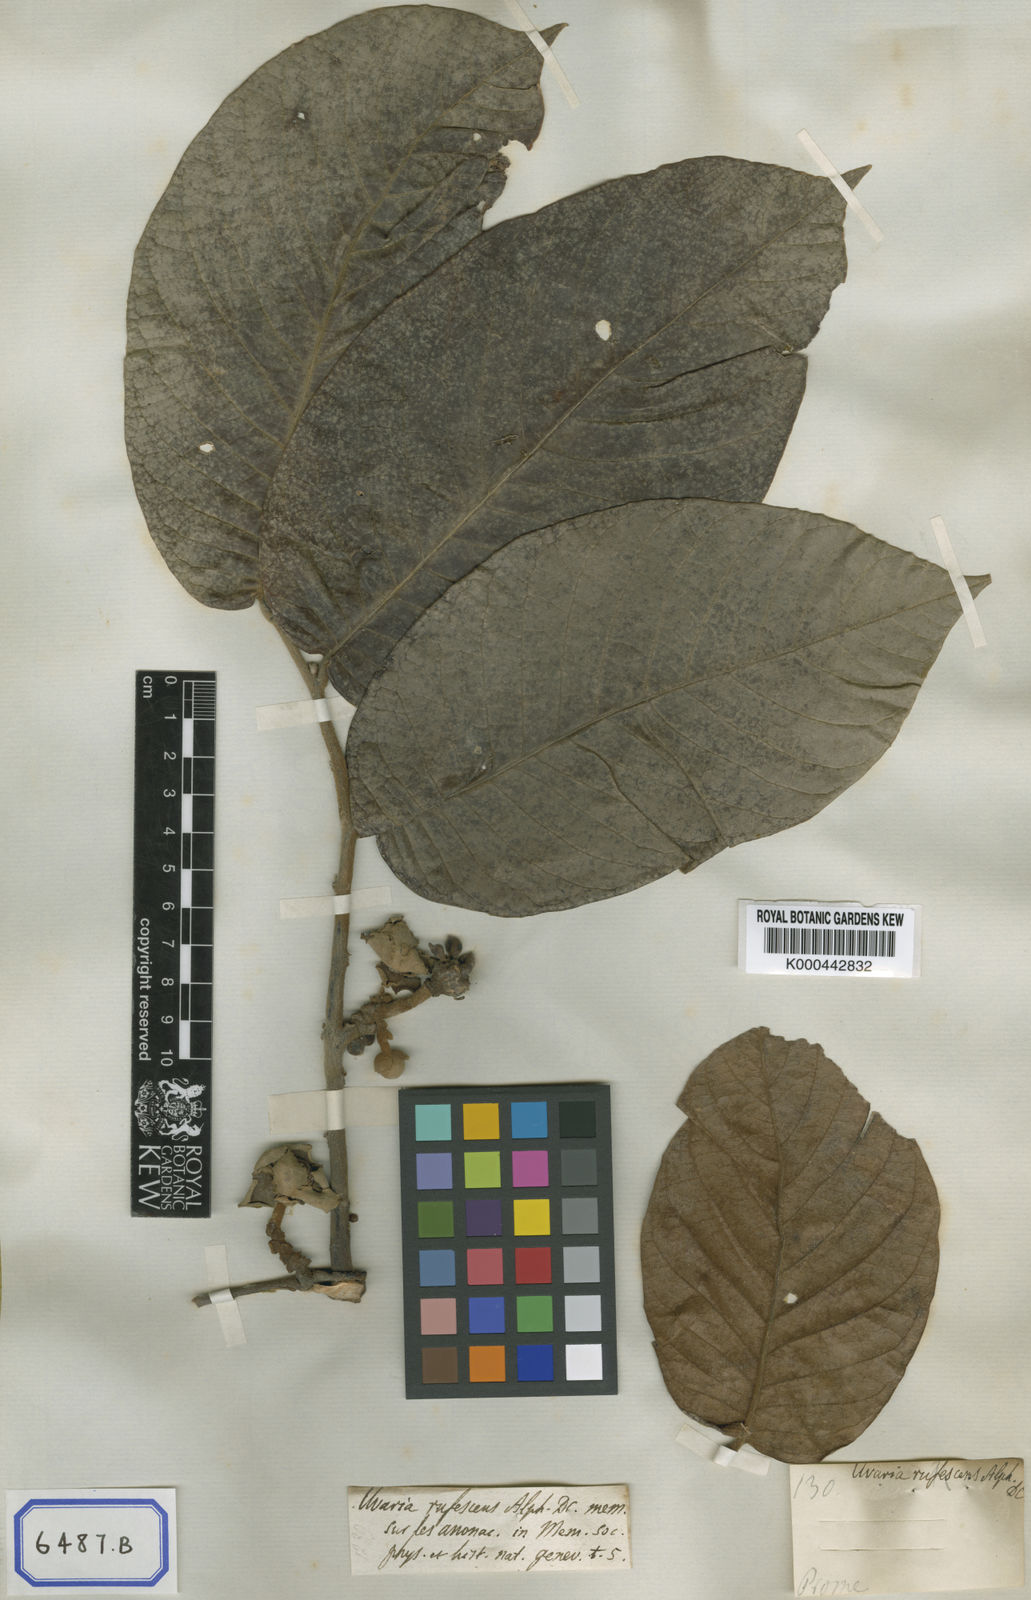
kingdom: Plantae
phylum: Tracheophyta
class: Magnoliopsida
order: Magnoliales
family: Annonaceae
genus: Uvaria
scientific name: Uvaria littoralis
